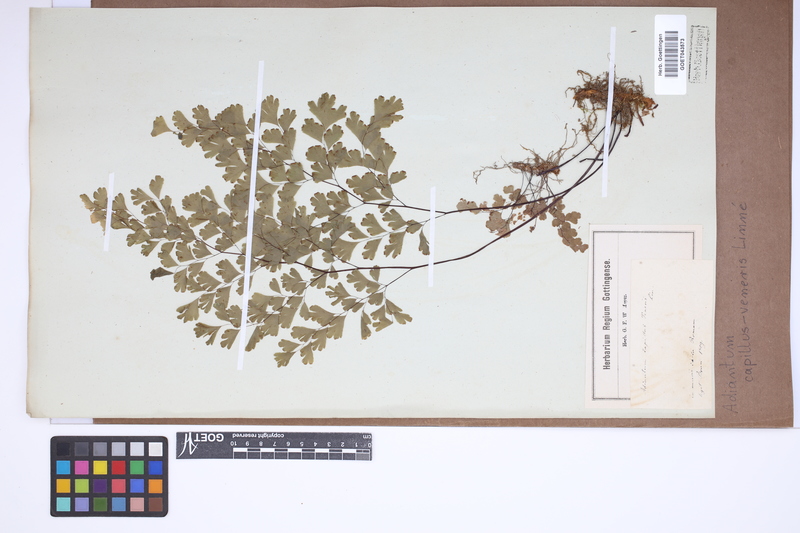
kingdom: Plantae
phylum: Tracheophyta
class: Polypodiopsida
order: Polypodiales
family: Pteridaceae
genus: Adiantum
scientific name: Adiantum capillus-veneris
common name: Maidenhair fern
